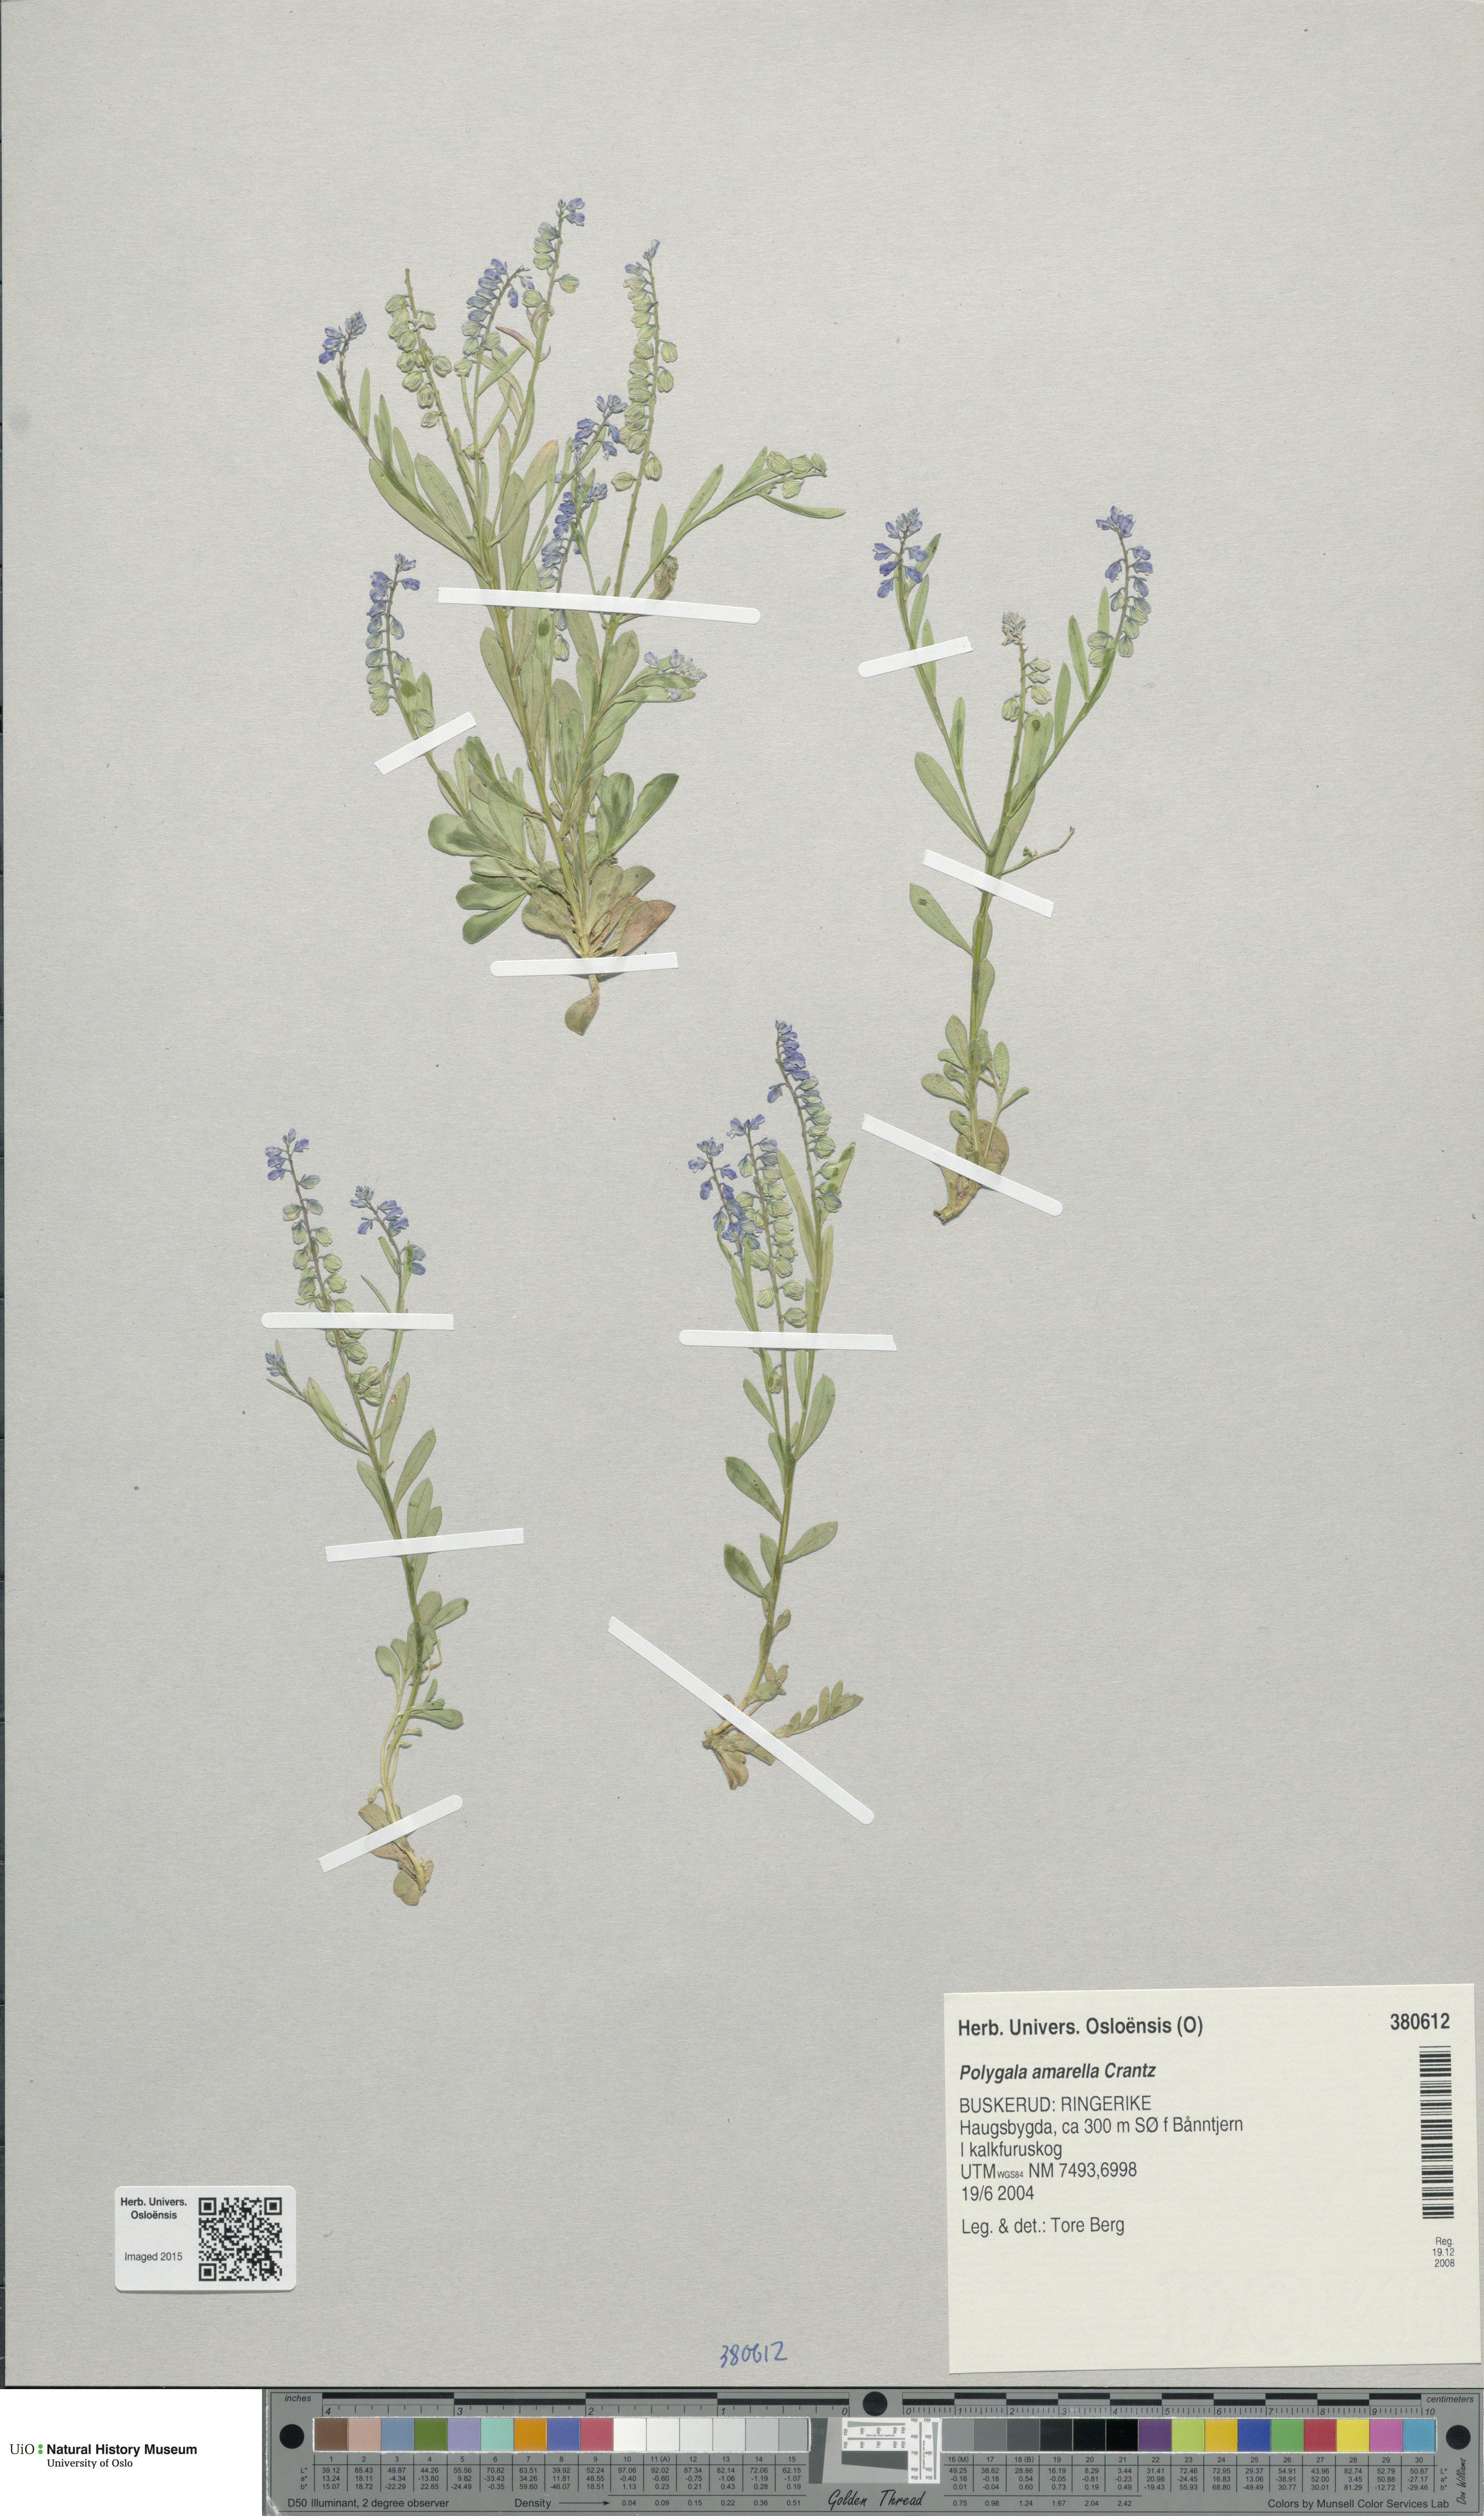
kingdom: Plantae
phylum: Tracheophyta
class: Magnoliopsida
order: Fabales
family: Polygalaceae
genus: Polygala
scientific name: Polygala amarella
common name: Dwarf milkwort
